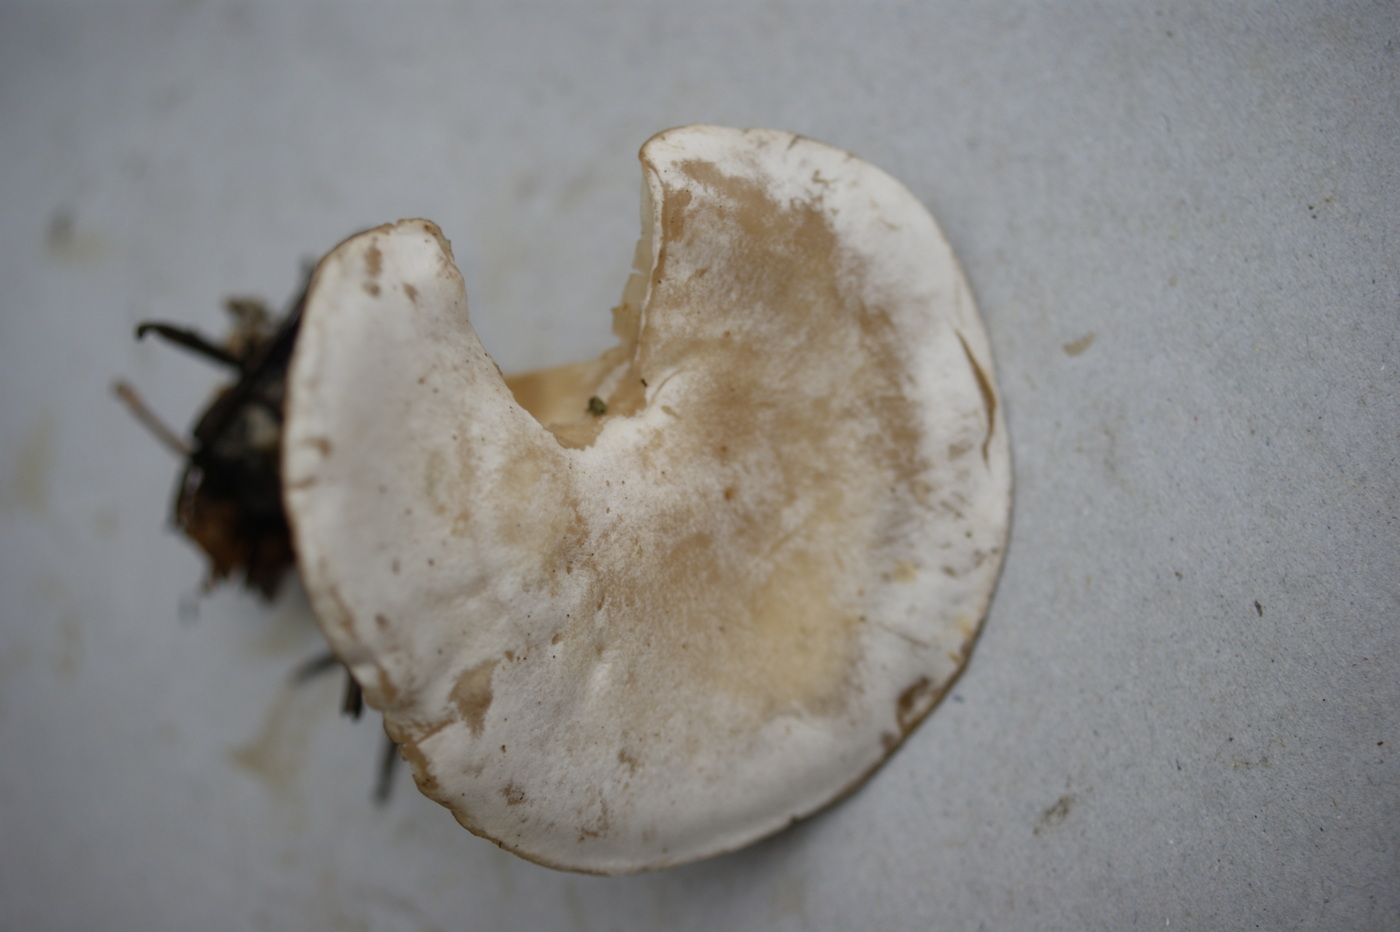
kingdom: Fungi
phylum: Basidiomycota
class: Agaricomycetes
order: Agaricales
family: Tricholomataceae
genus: Clitocybe
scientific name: Clitocybe phyllophila
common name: løv-tragthat
